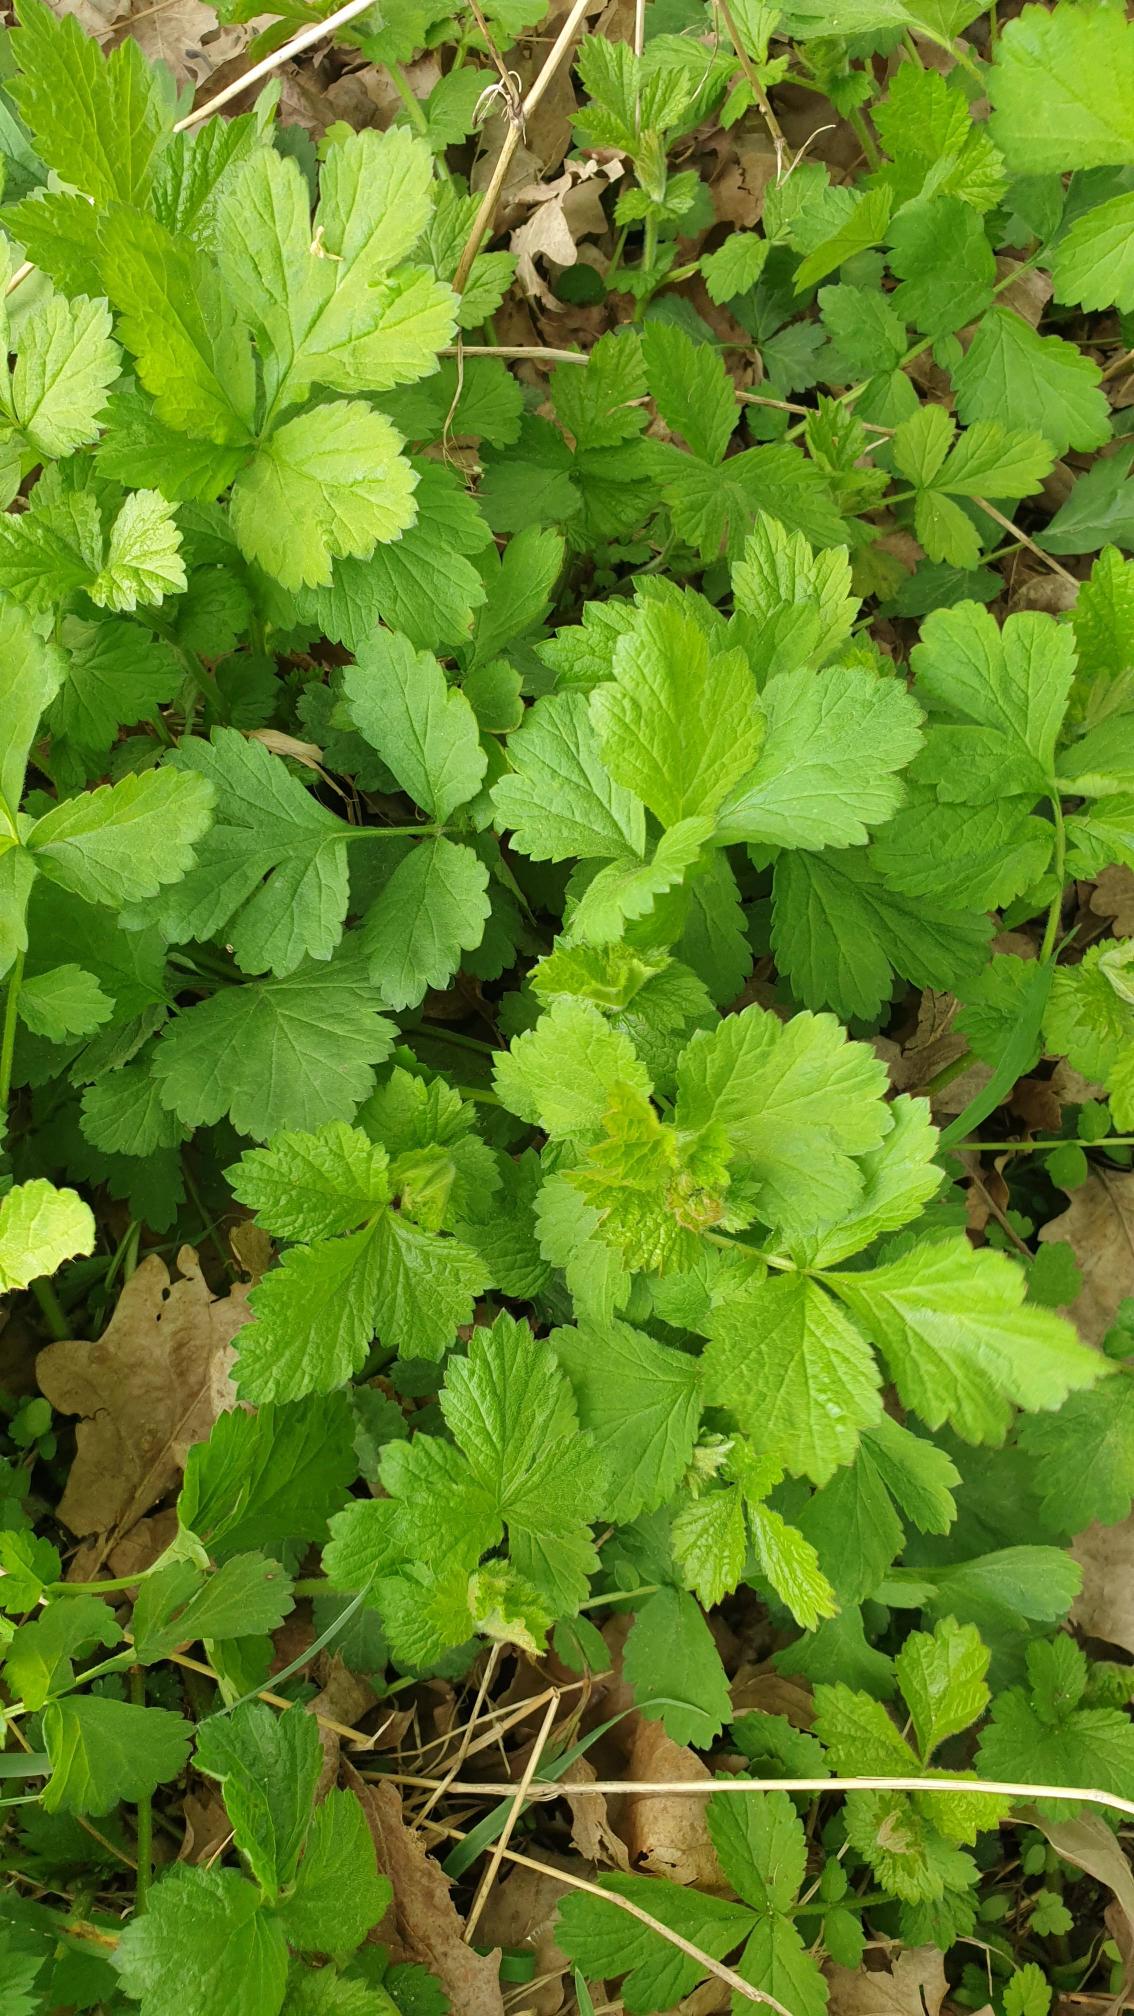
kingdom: Plantae
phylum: Tracheophyta
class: Magnoliopsida
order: Rosales
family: Rosaceae
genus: Geum
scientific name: Geum urbanum
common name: Feber-nellikerod
